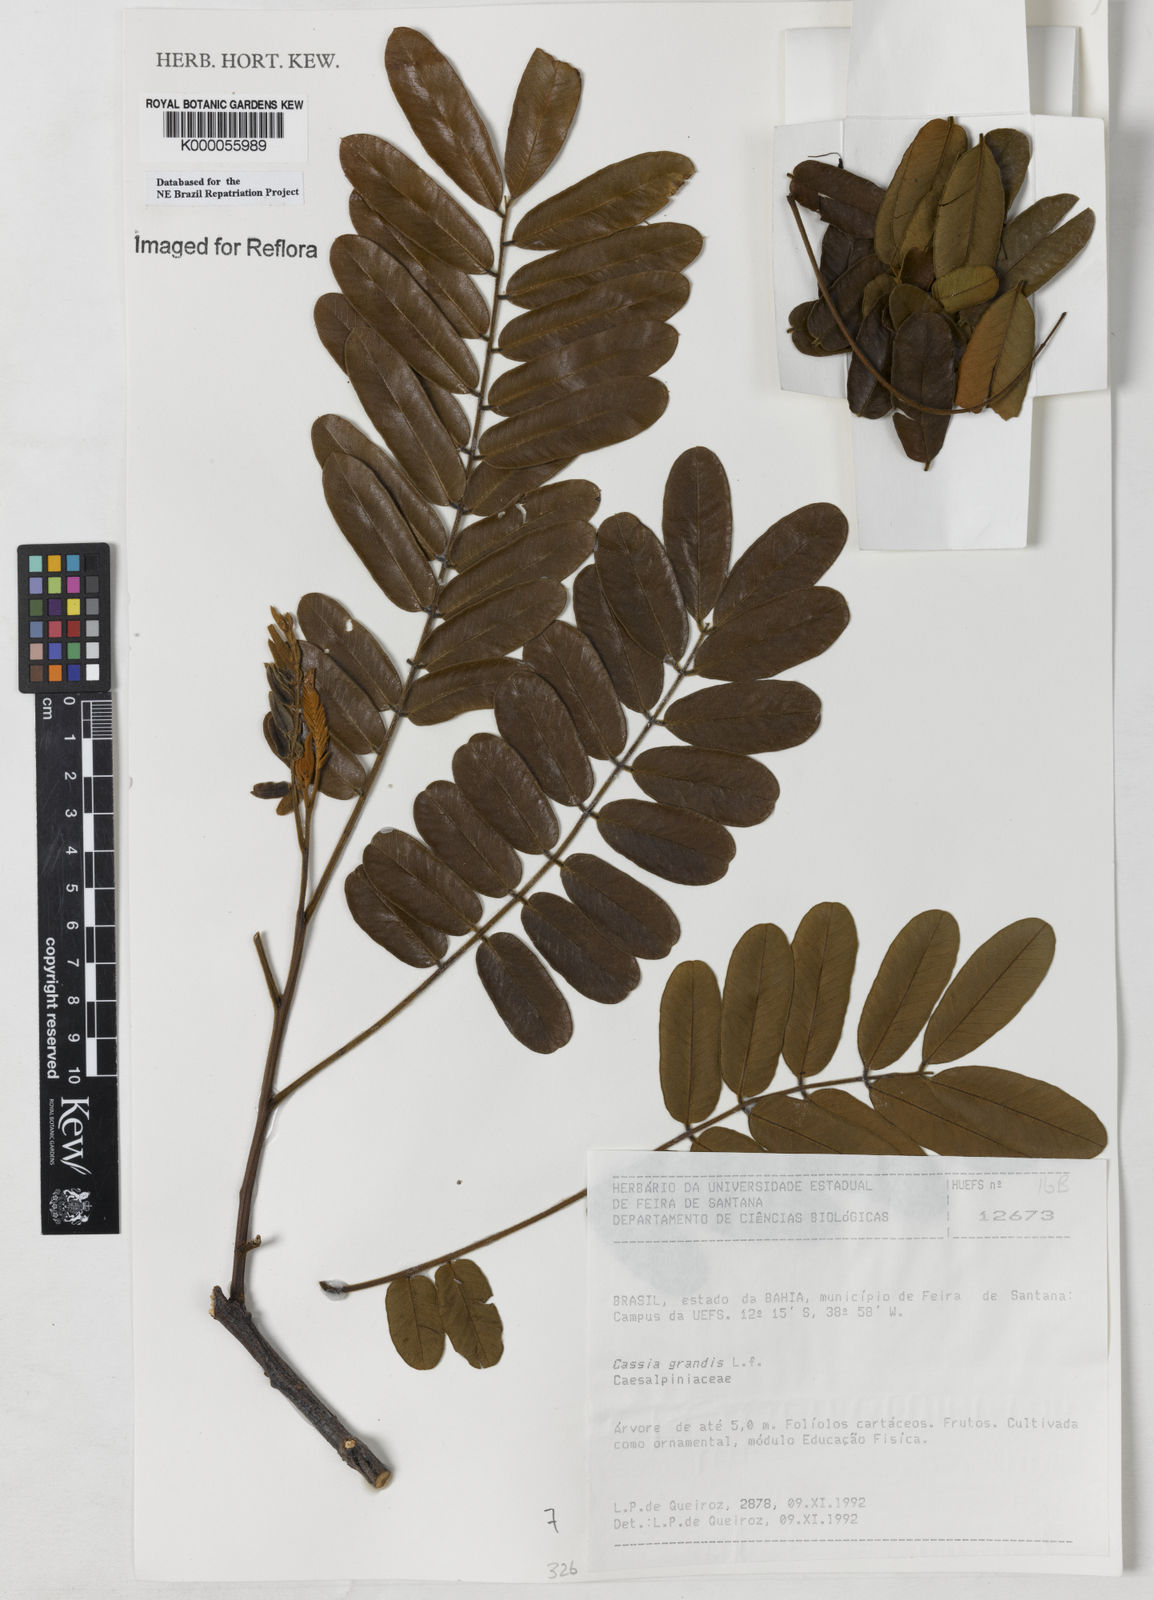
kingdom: Plantae
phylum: Tracheophyta
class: Magnoliopsida
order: Fabales
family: Fabaceae
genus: Cassia
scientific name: Cassia grandis
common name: Appleblossom cassia
